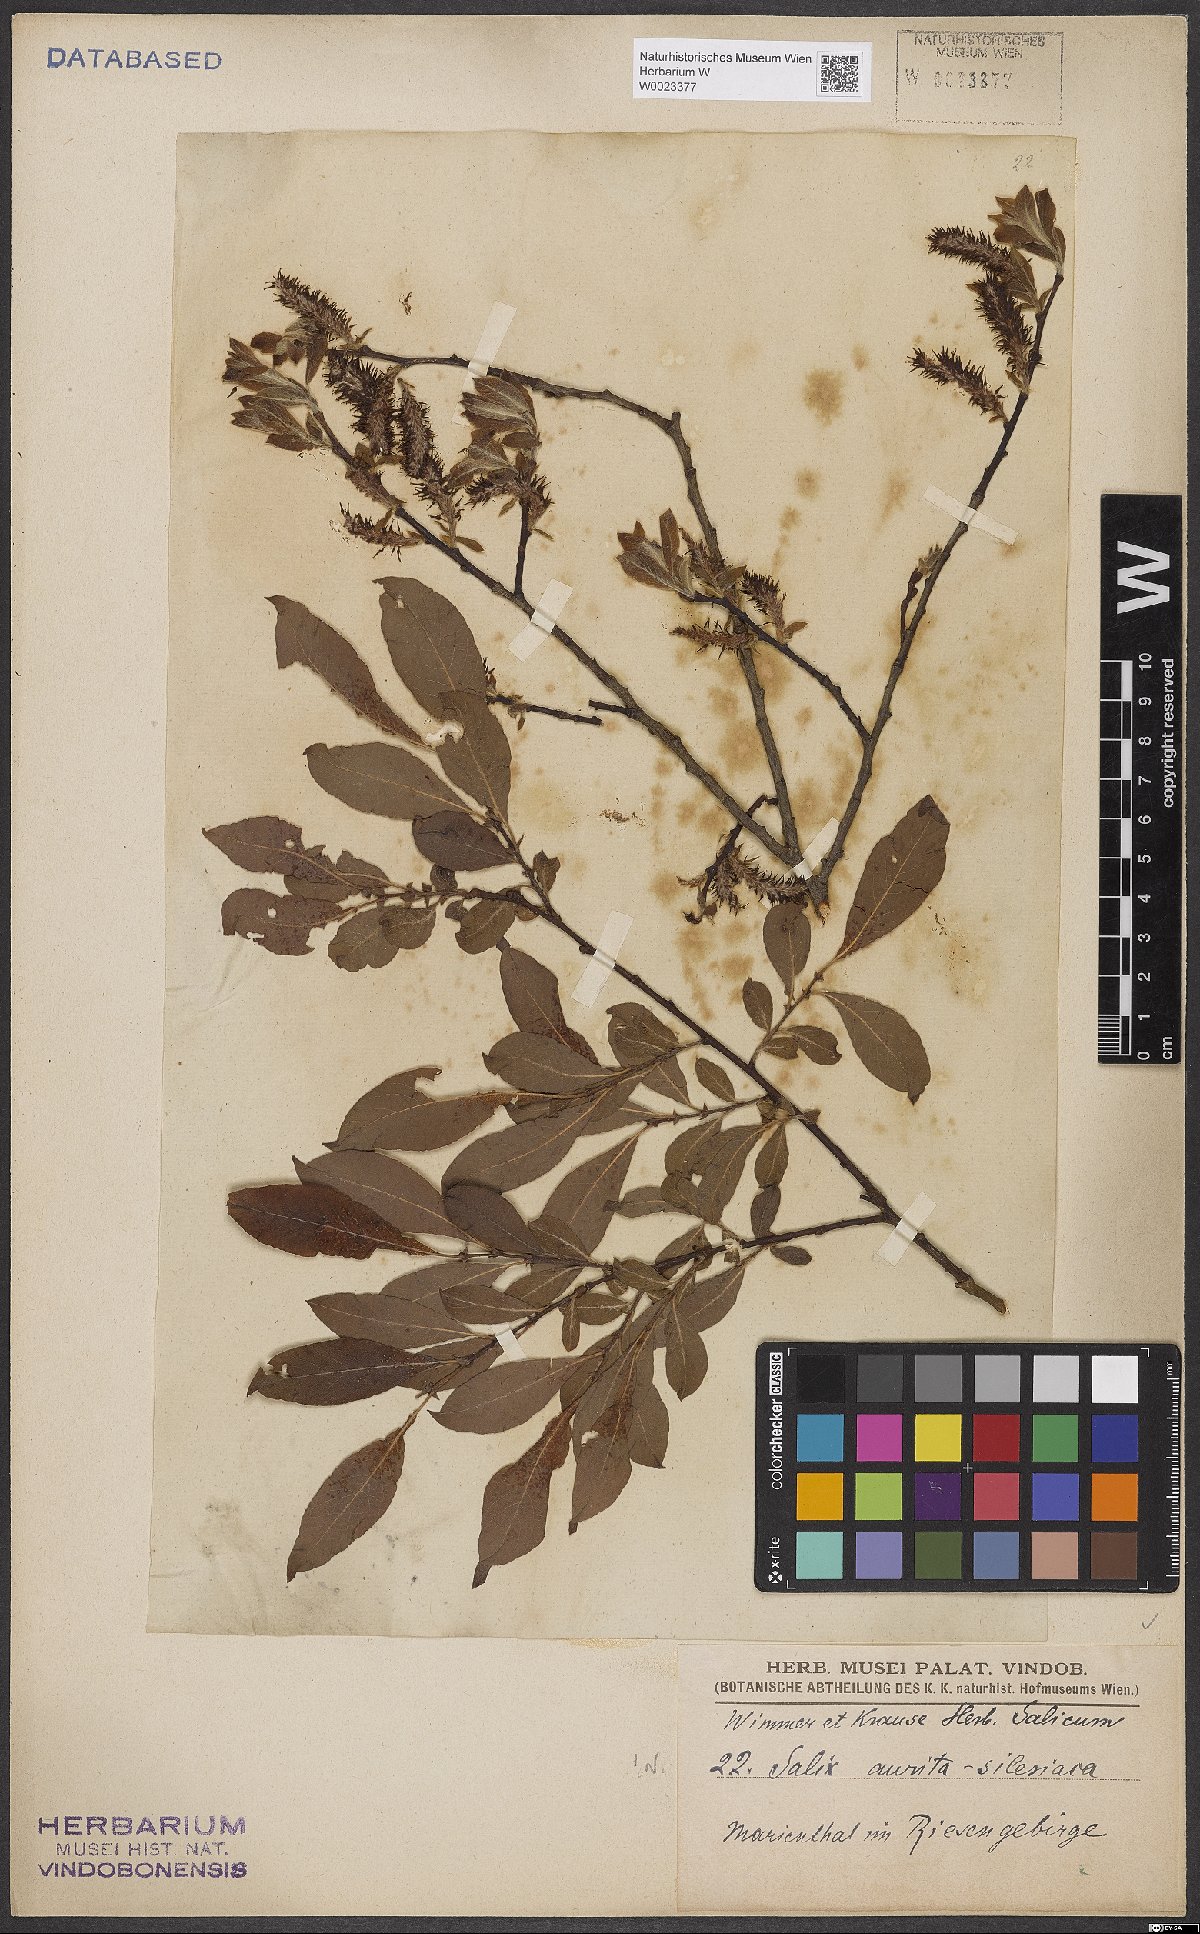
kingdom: Plantae
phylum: Tracheophyta
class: Magnoliopsida
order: Malpighiales
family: Salicaceae
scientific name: Salicaceae
